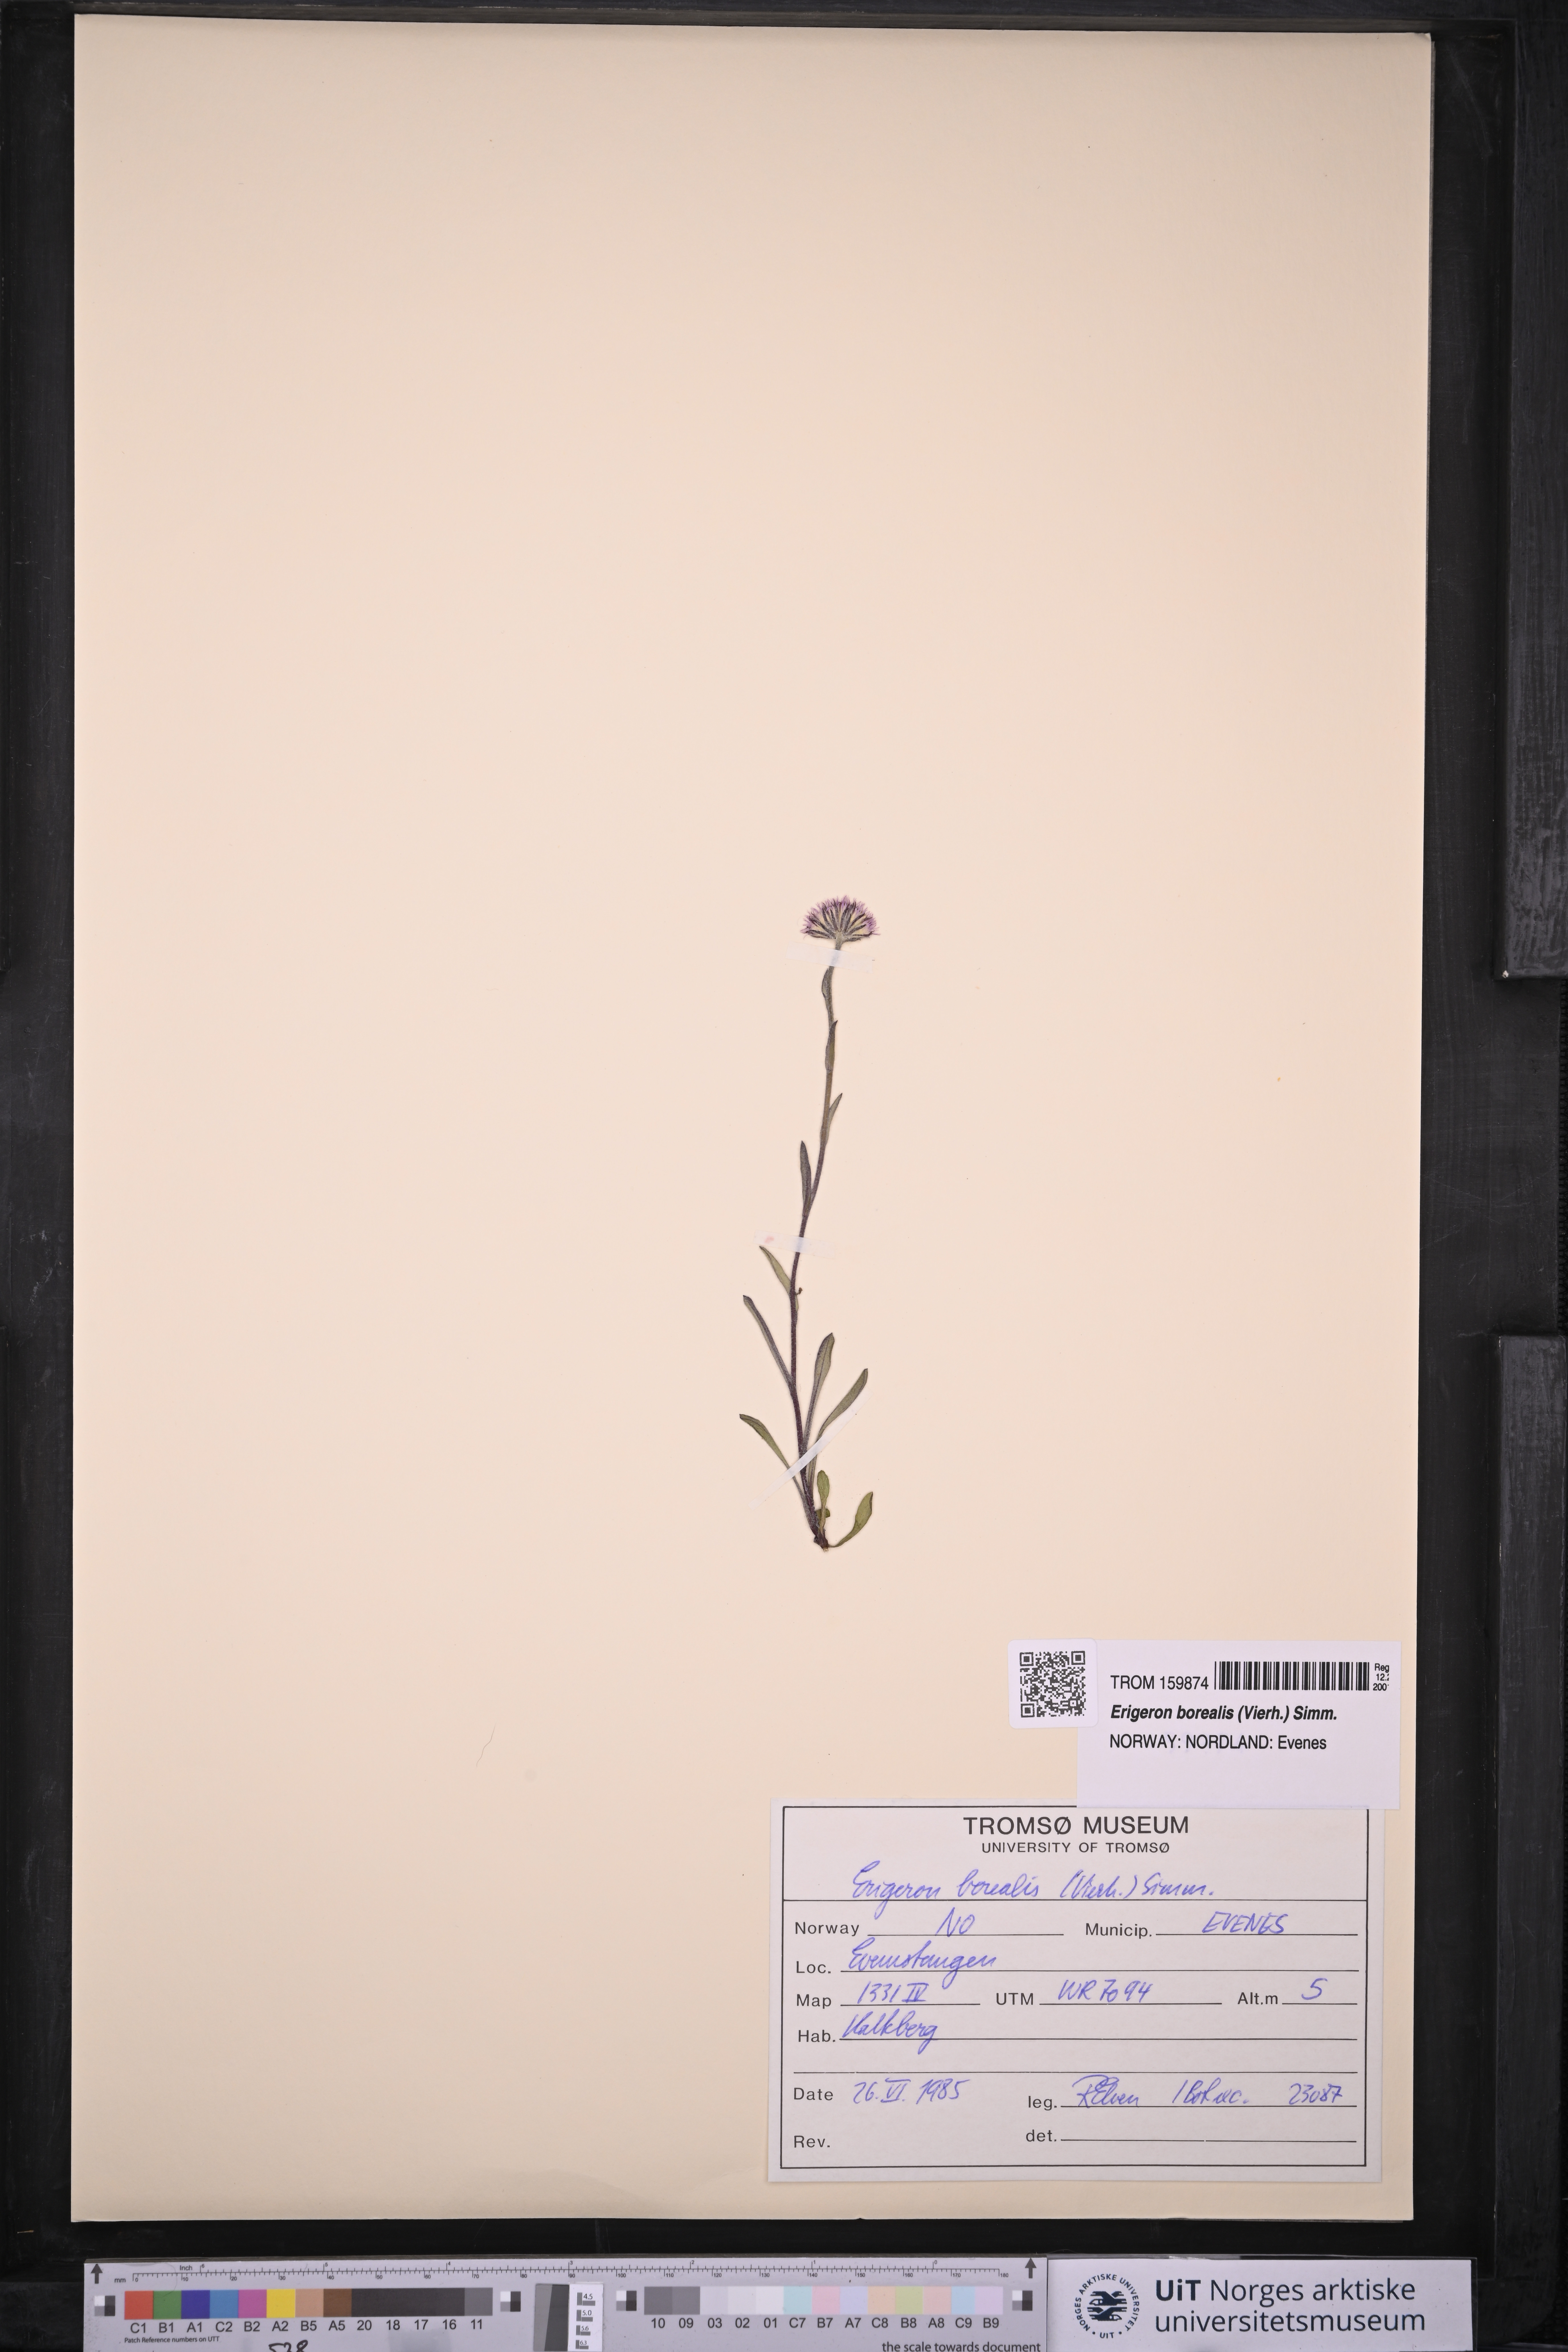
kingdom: Plantae
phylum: Tracheophyta
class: Magnoliopsida
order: Asterales
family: Asteraceae
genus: Erigeron
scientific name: Erigeron borealis
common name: Alpine fleabane
